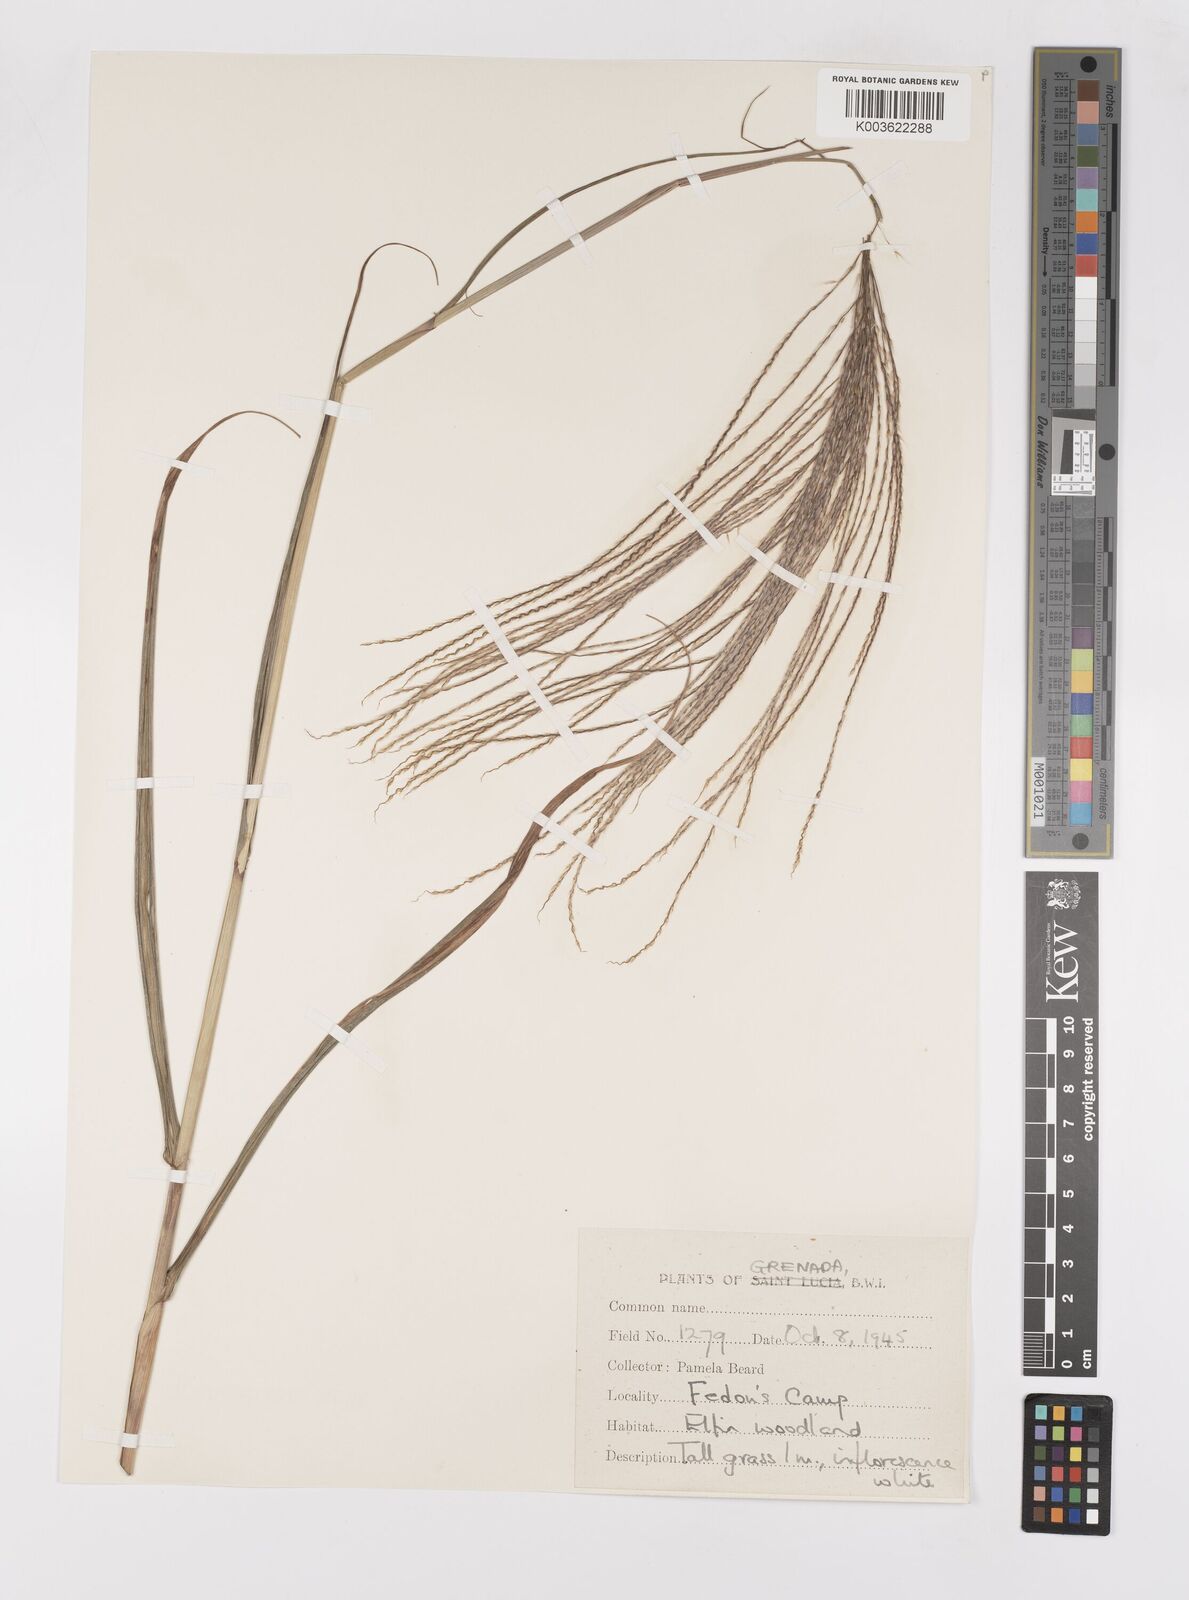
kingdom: Plantae
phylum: Tracheophyta
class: Liliopsida
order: Poales
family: Poaceae
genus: Paspalum
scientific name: Paspalum saccharoides
